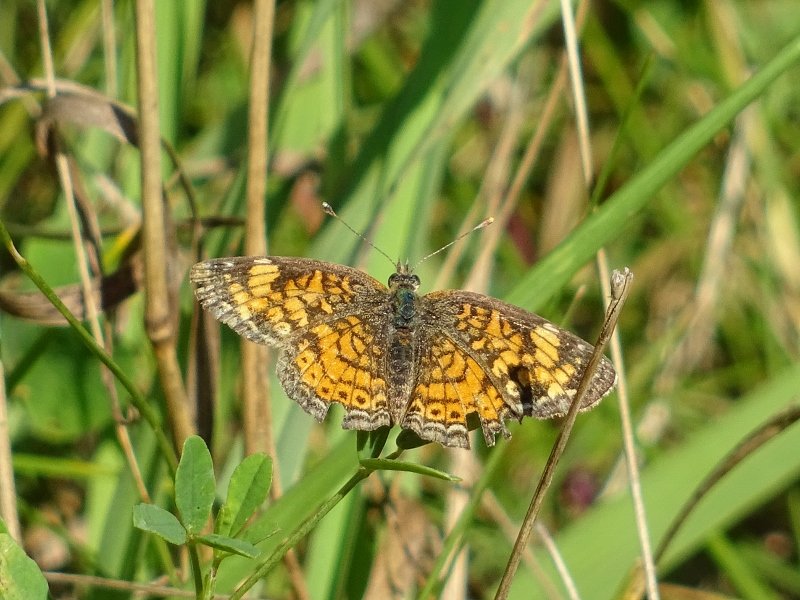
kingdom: Animalia
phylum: Arthropoda
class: Insecta
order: Lepidoptera
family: Nymphalidae
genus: Phyciodes
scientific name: Phyciodes tharos
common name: Northern Crescent
